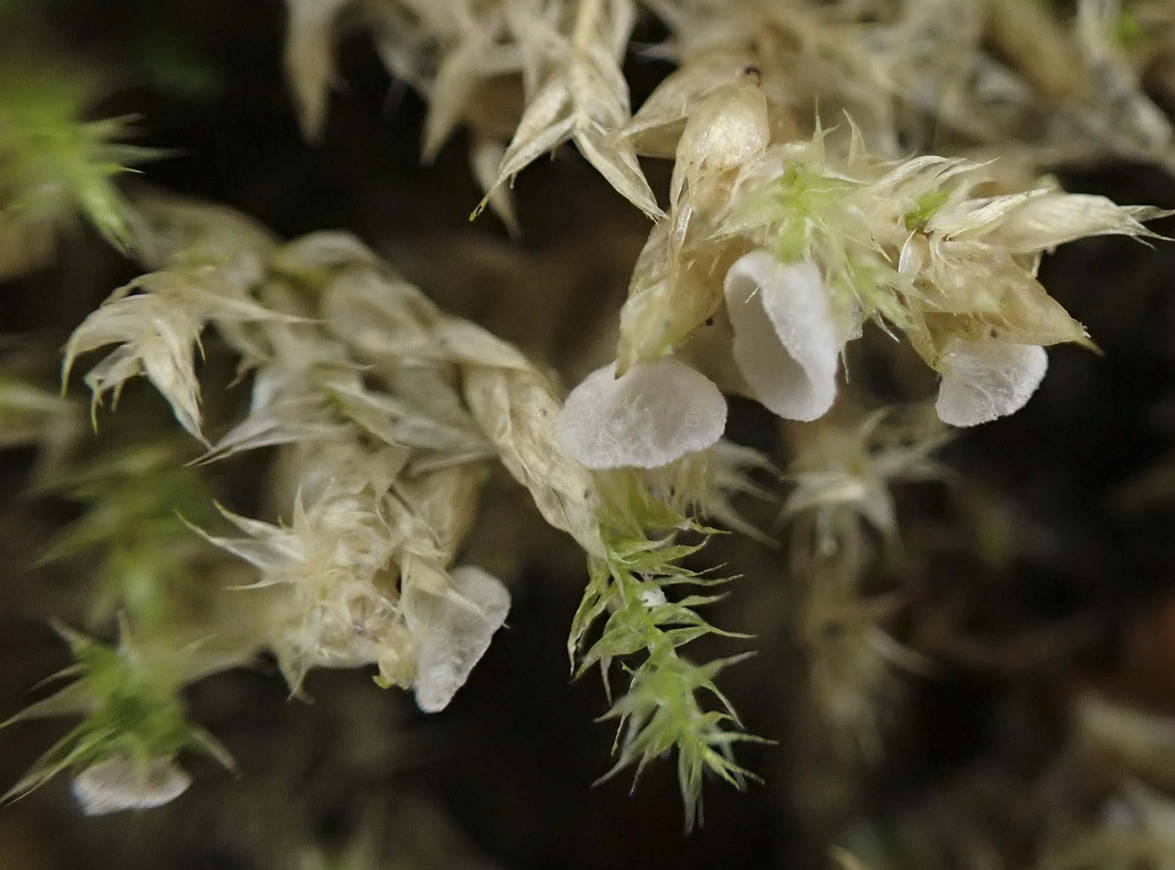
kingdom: Fungi
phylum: Basidiomycota
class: Agaricomycetes
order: Agaricales
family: Tricholomataceae
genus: Rimbachia
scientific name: Rimbachia arachnoidea
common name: Almindelig mosskål
